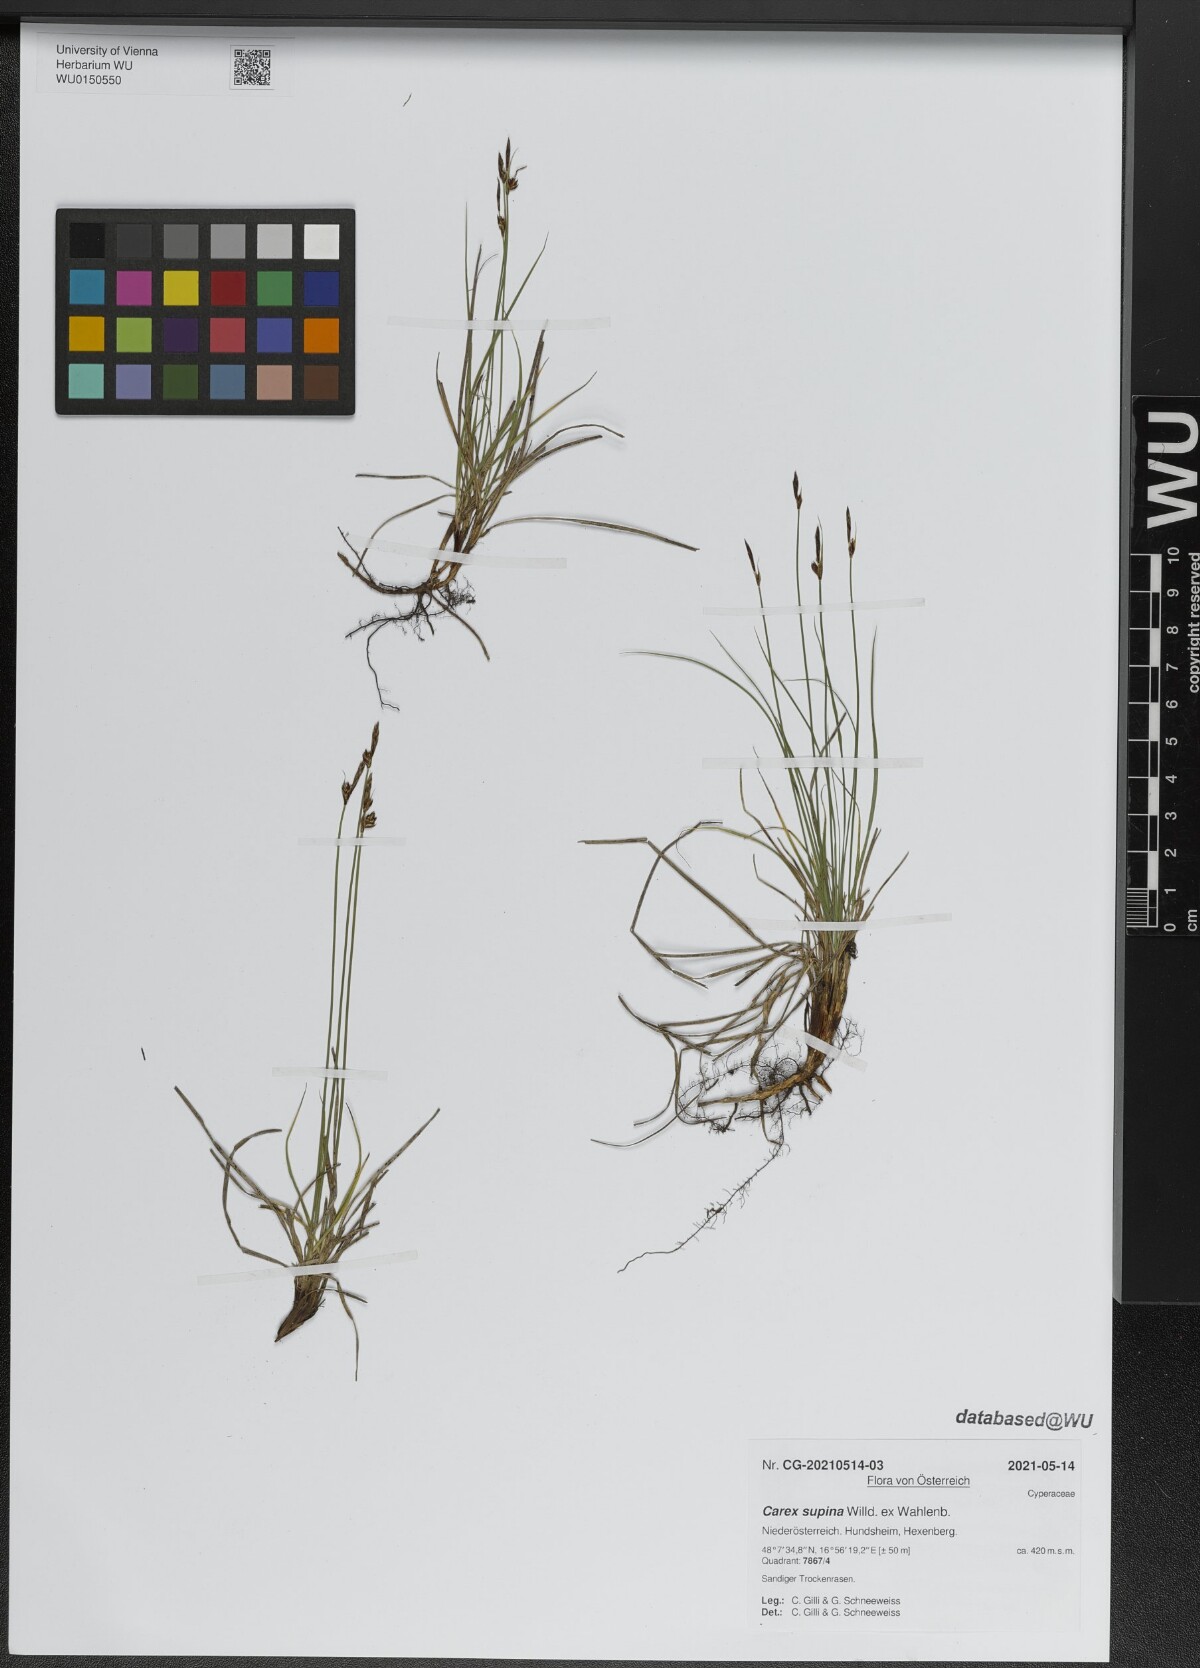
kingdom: Plantae
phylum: Tracheophyta
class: Liliopsida
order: Poales
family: Cyperaceae
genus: Carex
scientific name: Carex supina
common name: Lying-back sedge
